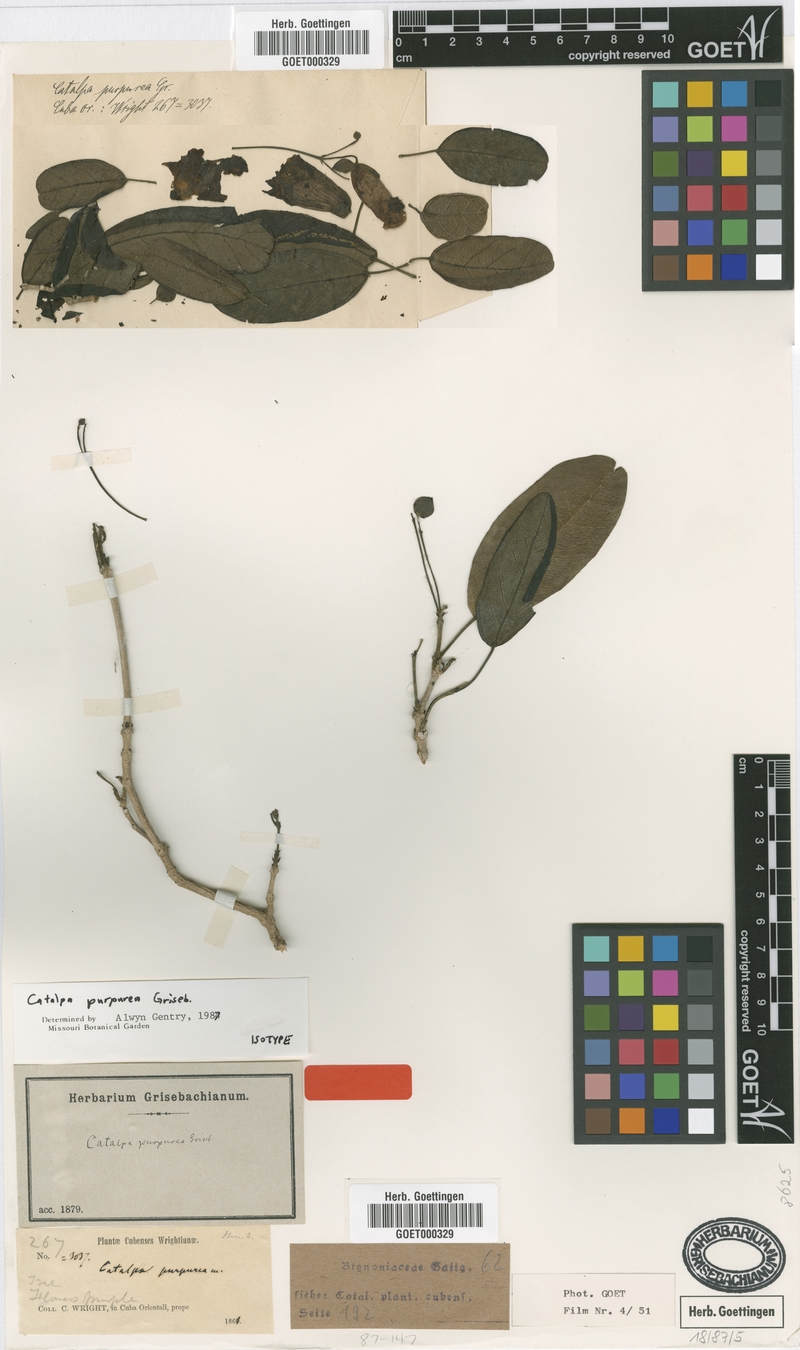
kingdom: Plantae
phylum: Tracheophyta
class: Magnoliopsida
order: Lamiales
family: Bignoniaceae
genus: Catalpa
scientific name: Catalpa purpurea
